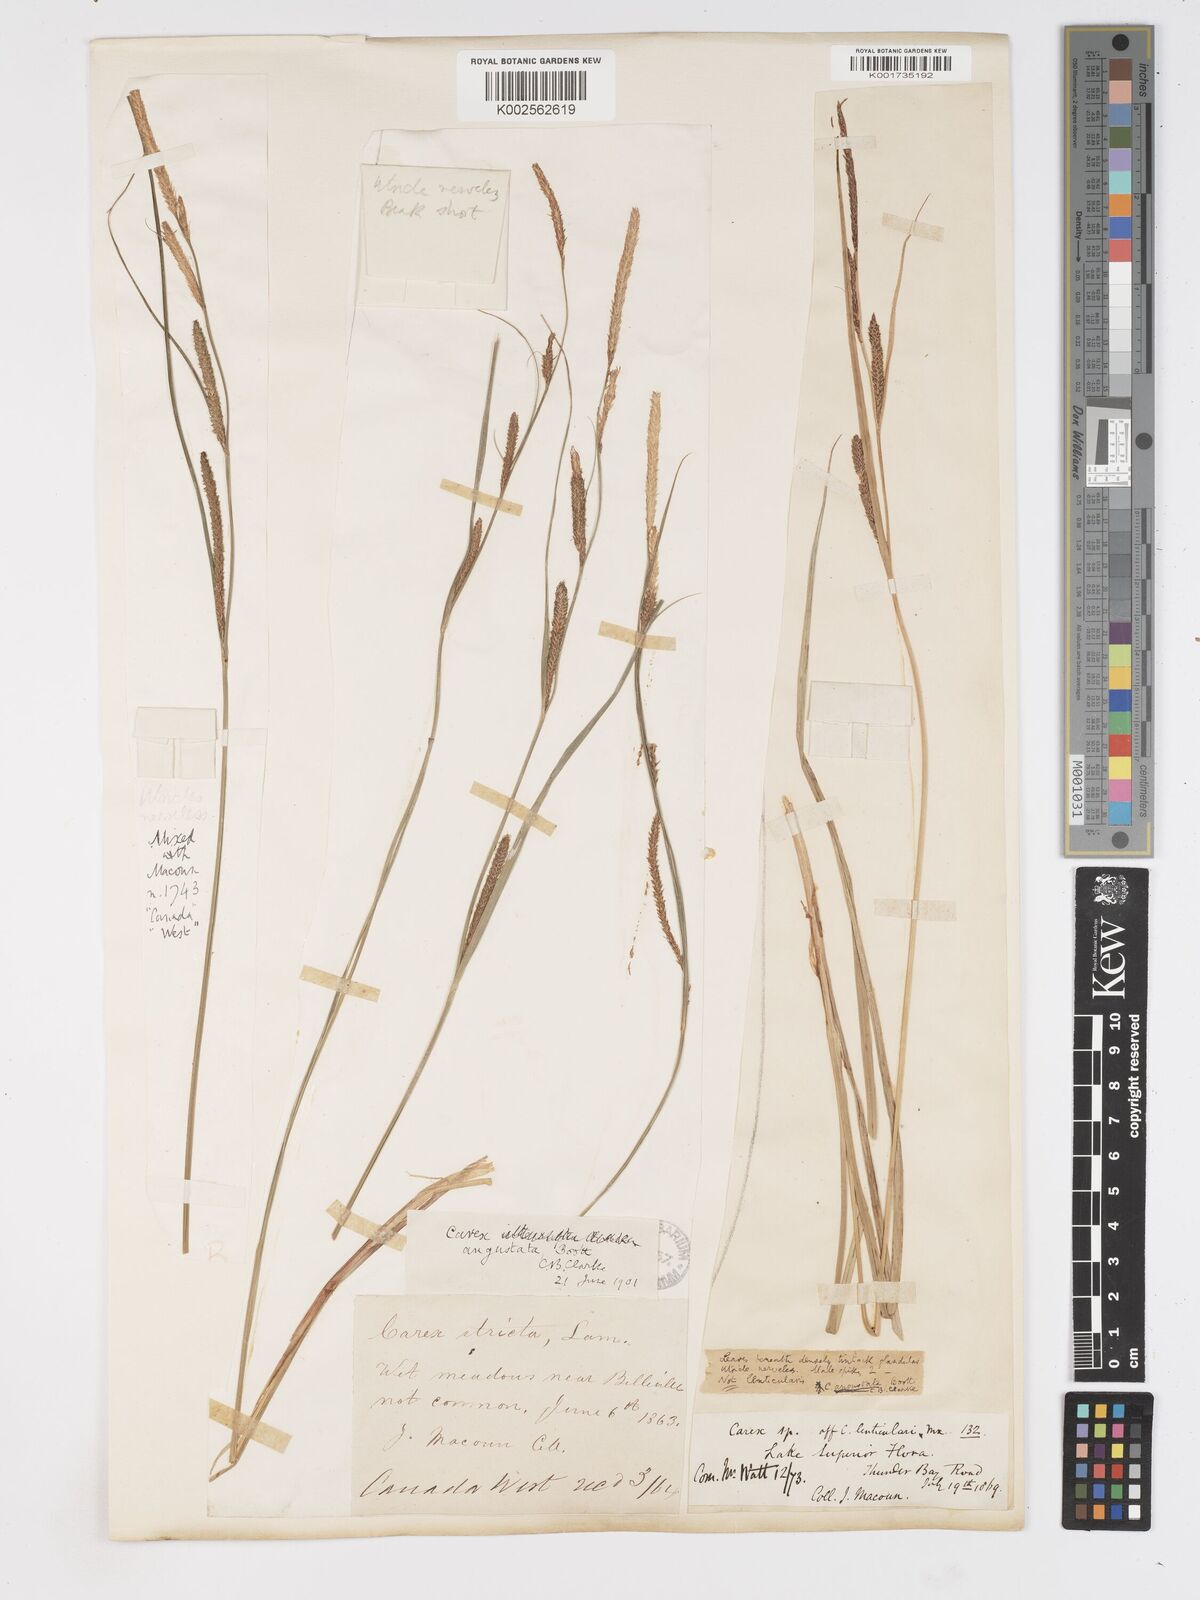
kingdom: Plantae
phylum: Tracheophyta
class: Liliopsida
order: Poales
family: Cyperaceae
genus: Carex
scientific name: Carex stricta
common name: Hummock sedge
